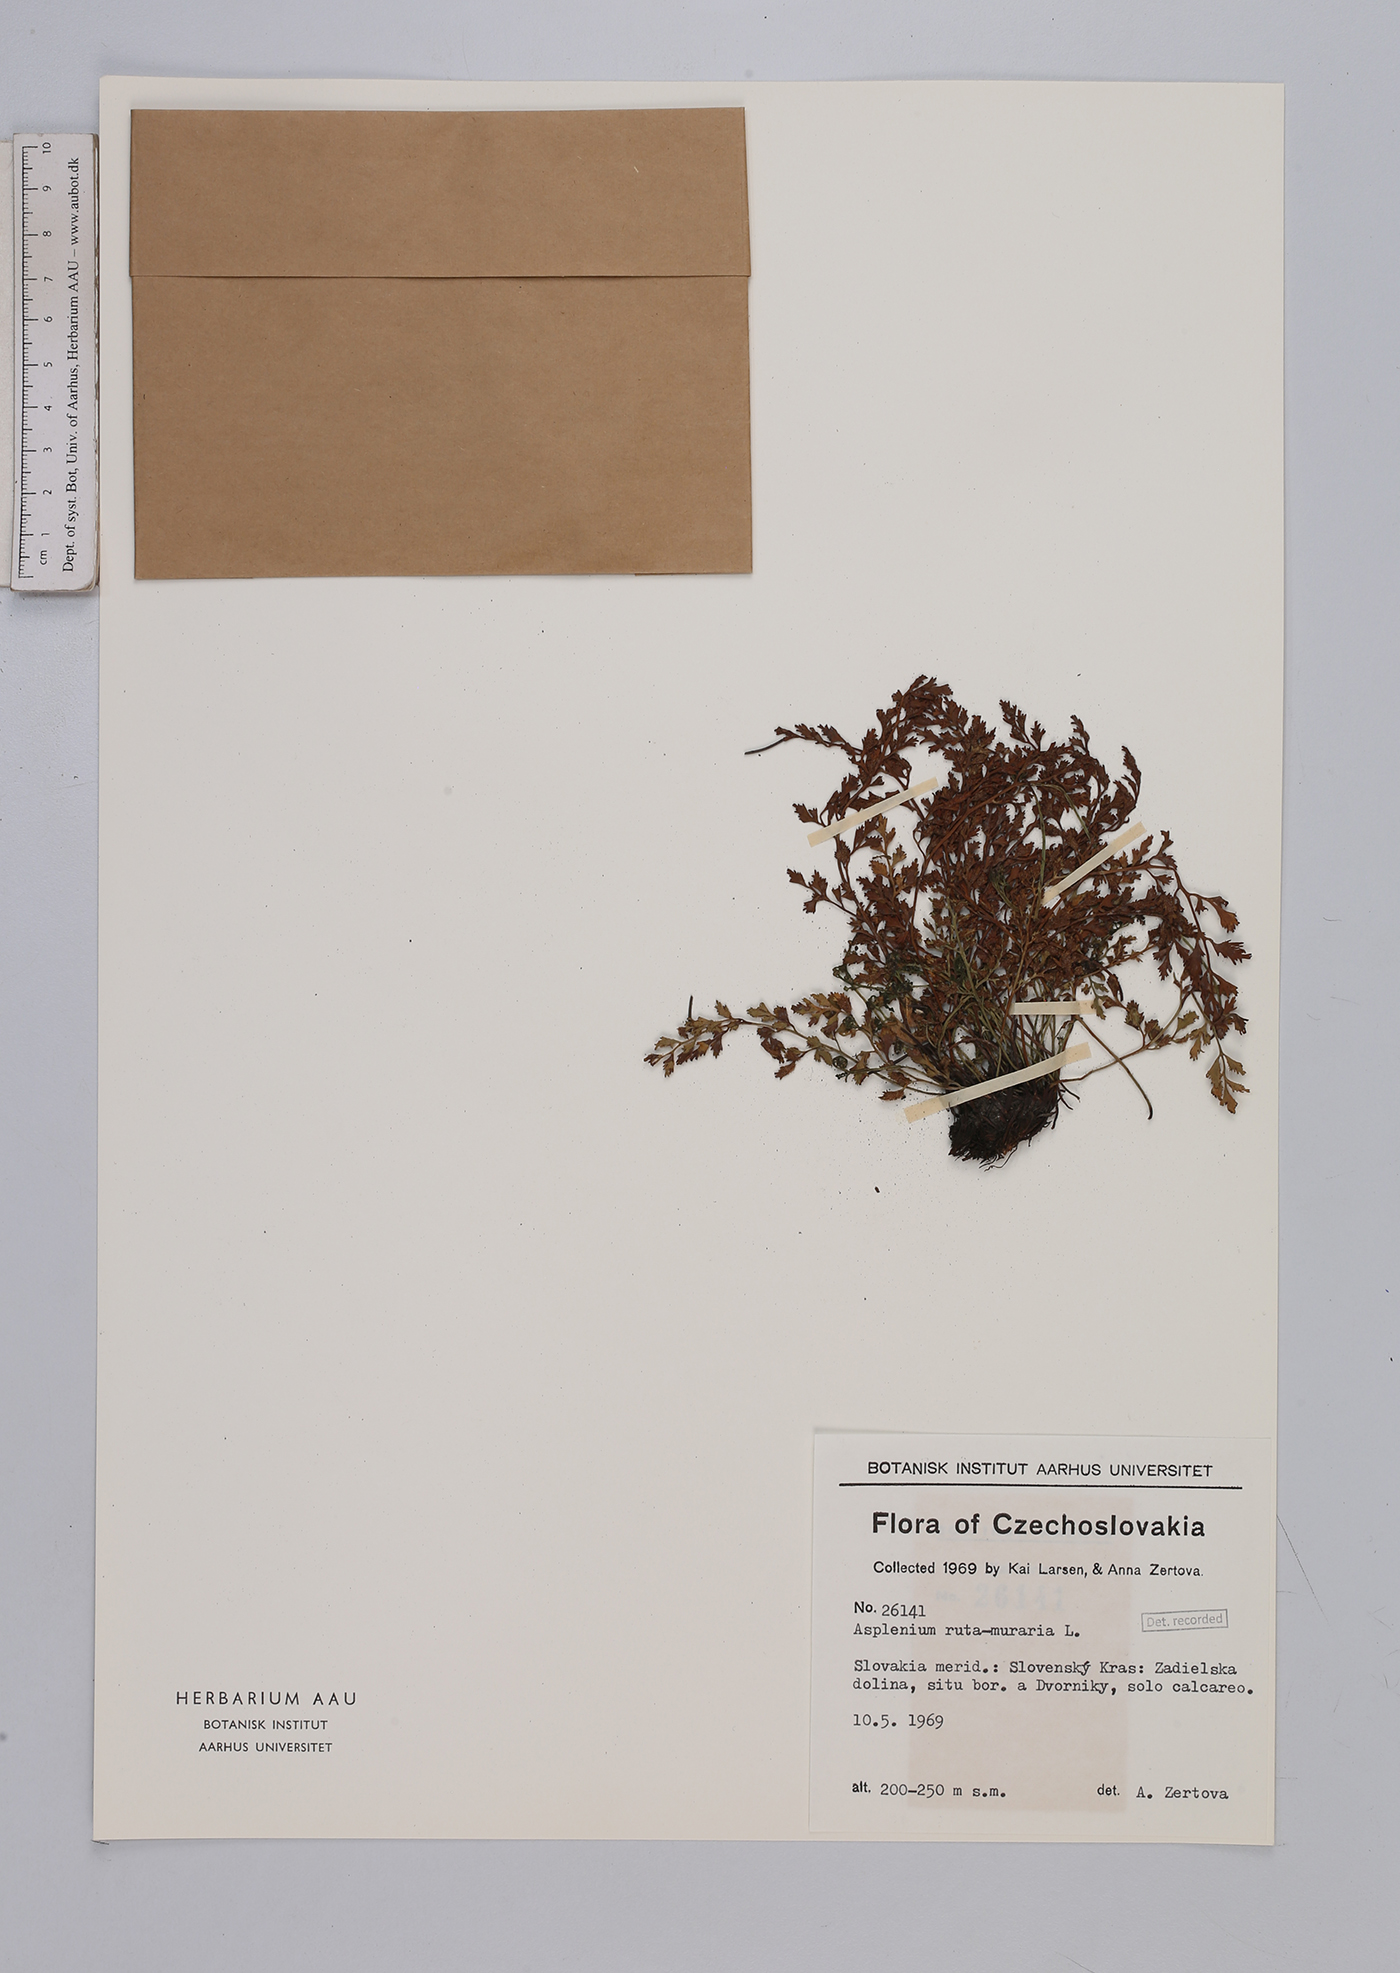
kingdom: Plantae
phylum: Tracheophyta
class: Polypodiopsida
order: Polypodiales
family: Aspleniaceae
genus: Asplenium
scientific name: Asplenium ruta-muraria
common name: Wall-rue
